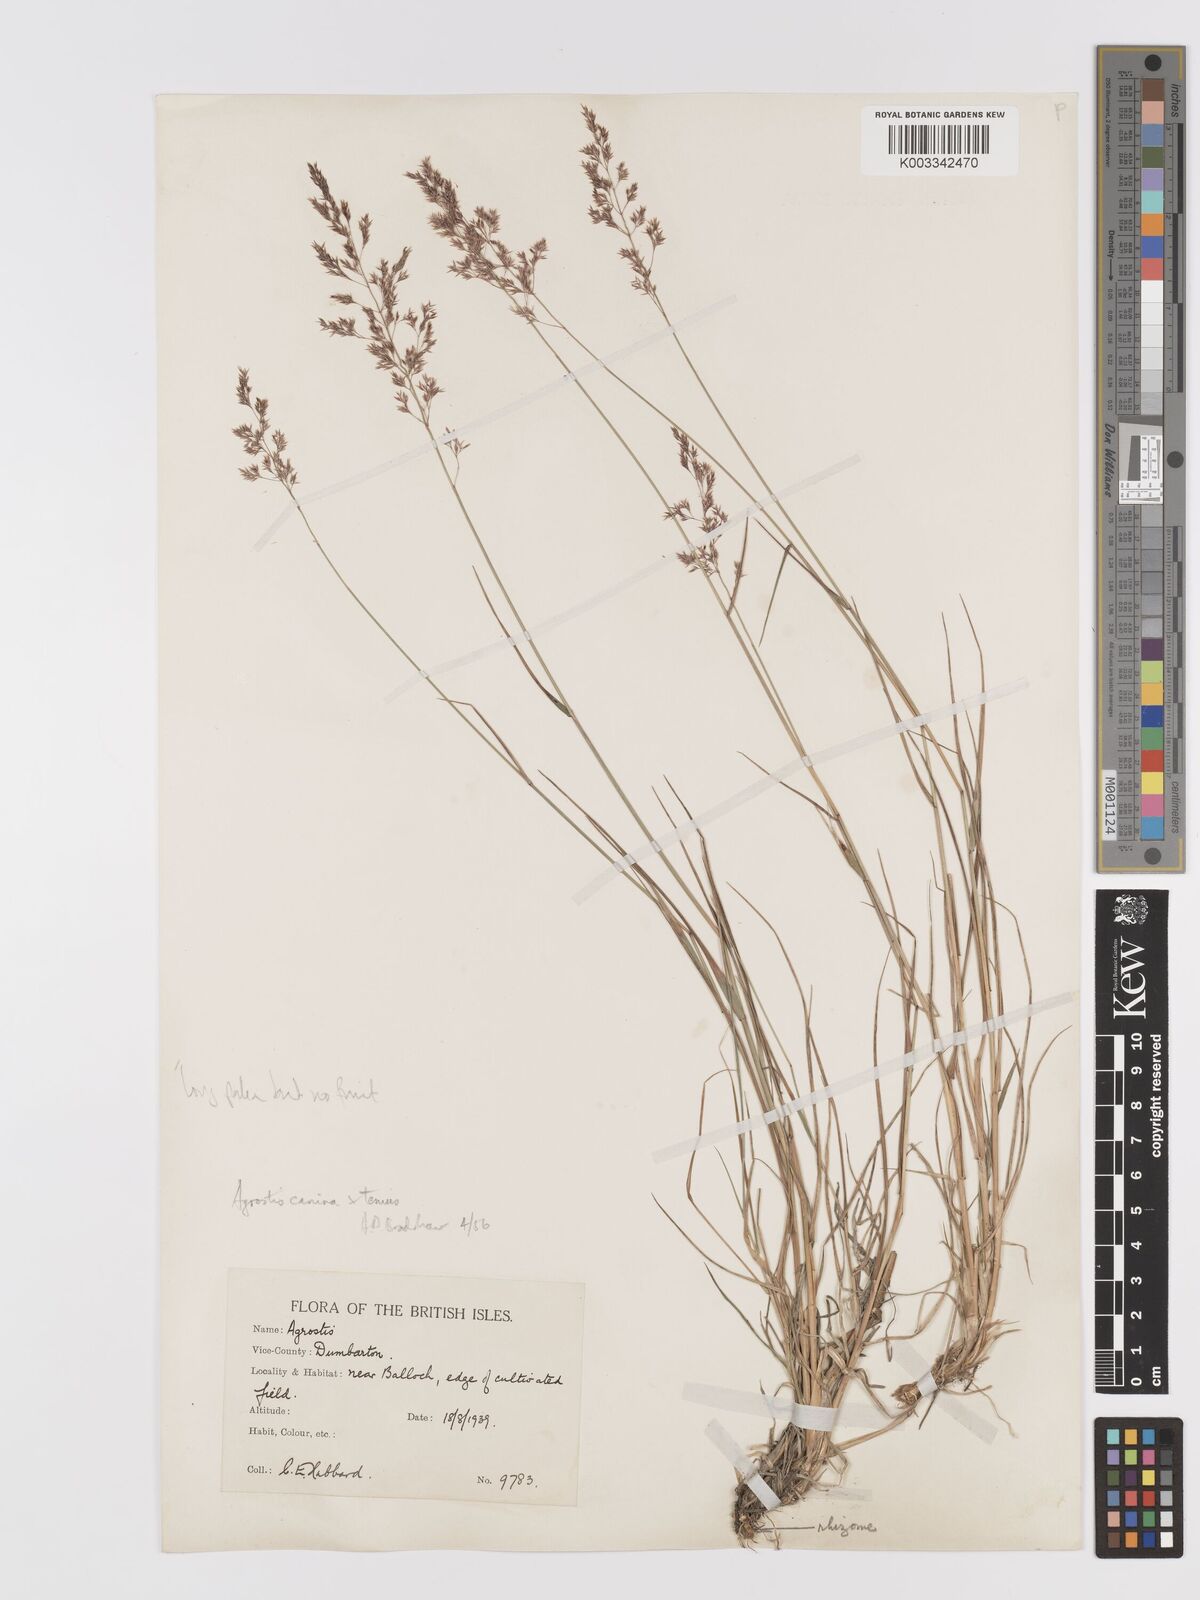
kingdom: Plantae
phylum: Tracheophyta
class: Liliopsida
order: Poales
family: Poaceae
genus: Agrostis
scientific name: Agrostis capillaris
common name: Colonial bentgrass
